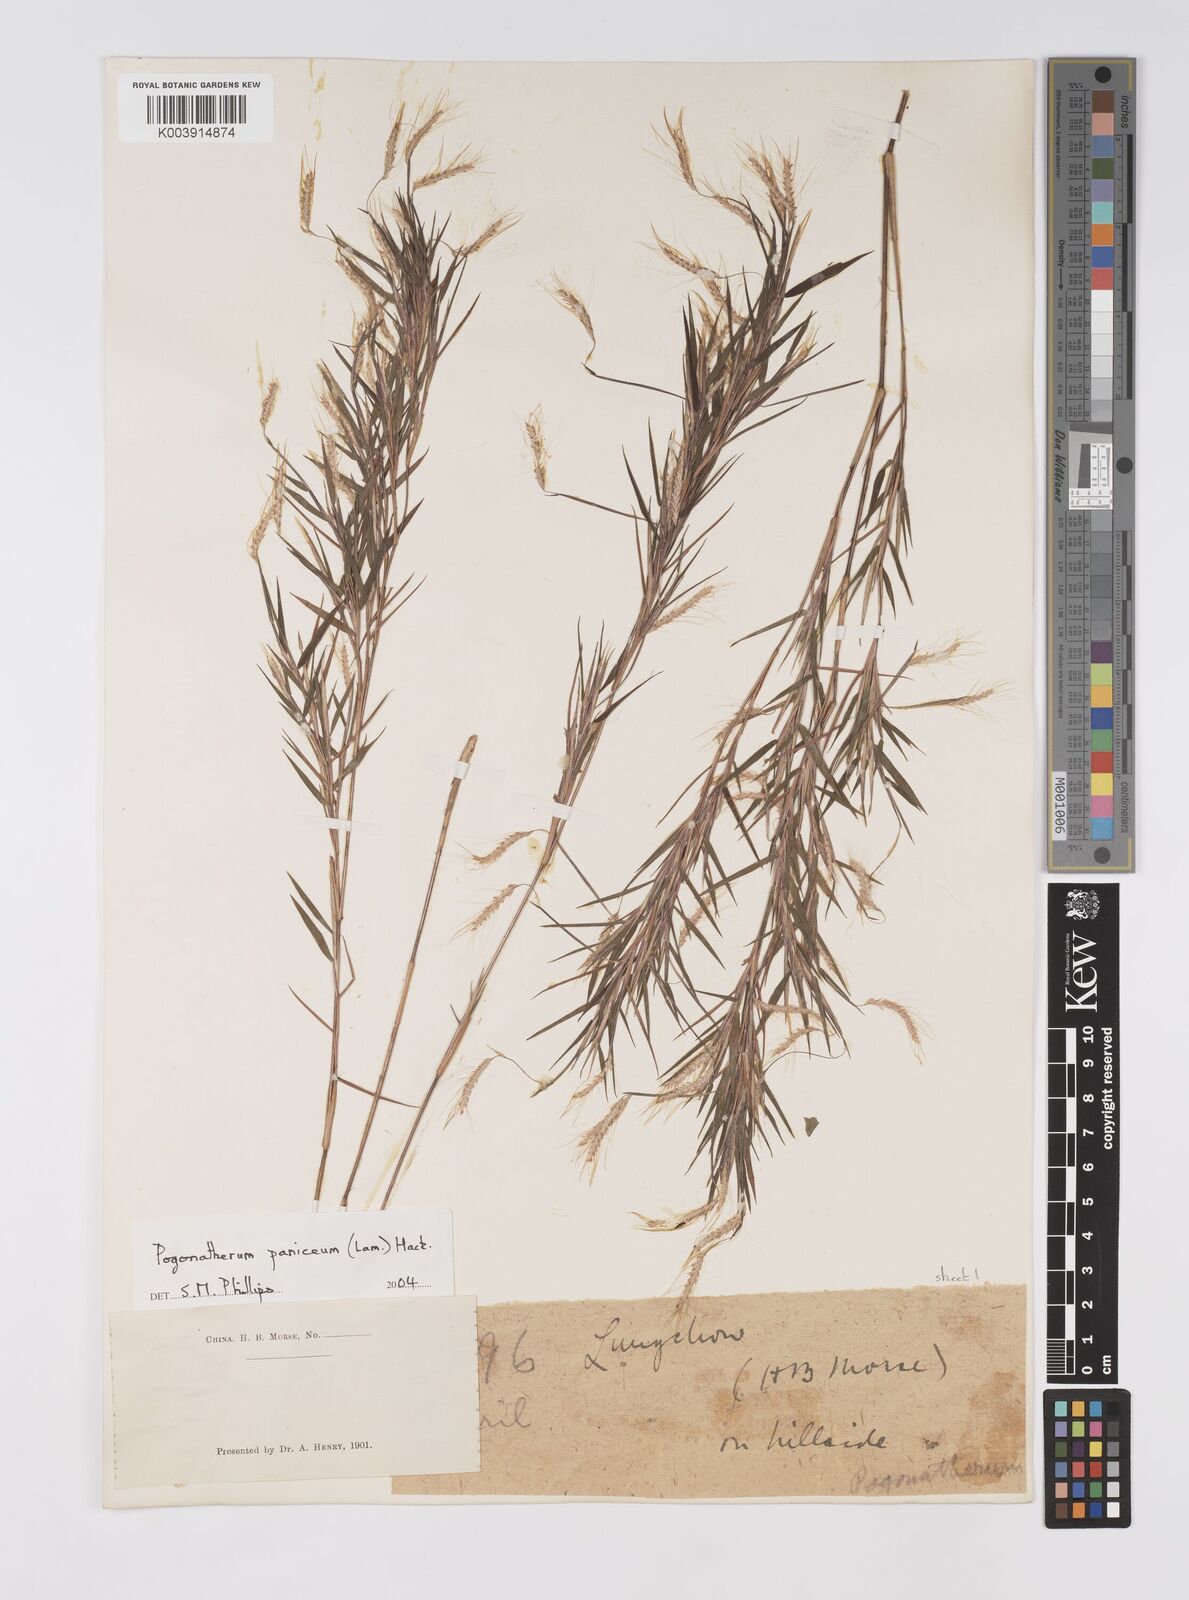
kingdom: Plantae
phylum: Tracheophyta
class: Liliopsida
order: Poales
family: Poaceae
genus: Pogonatherum
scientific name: Pogonatherum paniceum
